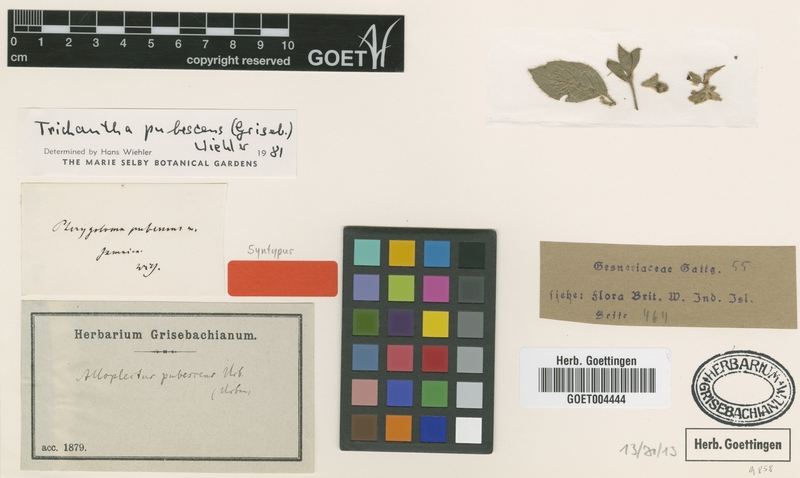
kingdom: Plantae
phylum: Tracheophyta
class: Magnoliopsida
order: Lamiales
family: Gesneriaceae
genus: Columnea
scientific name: Columnea pubescens
